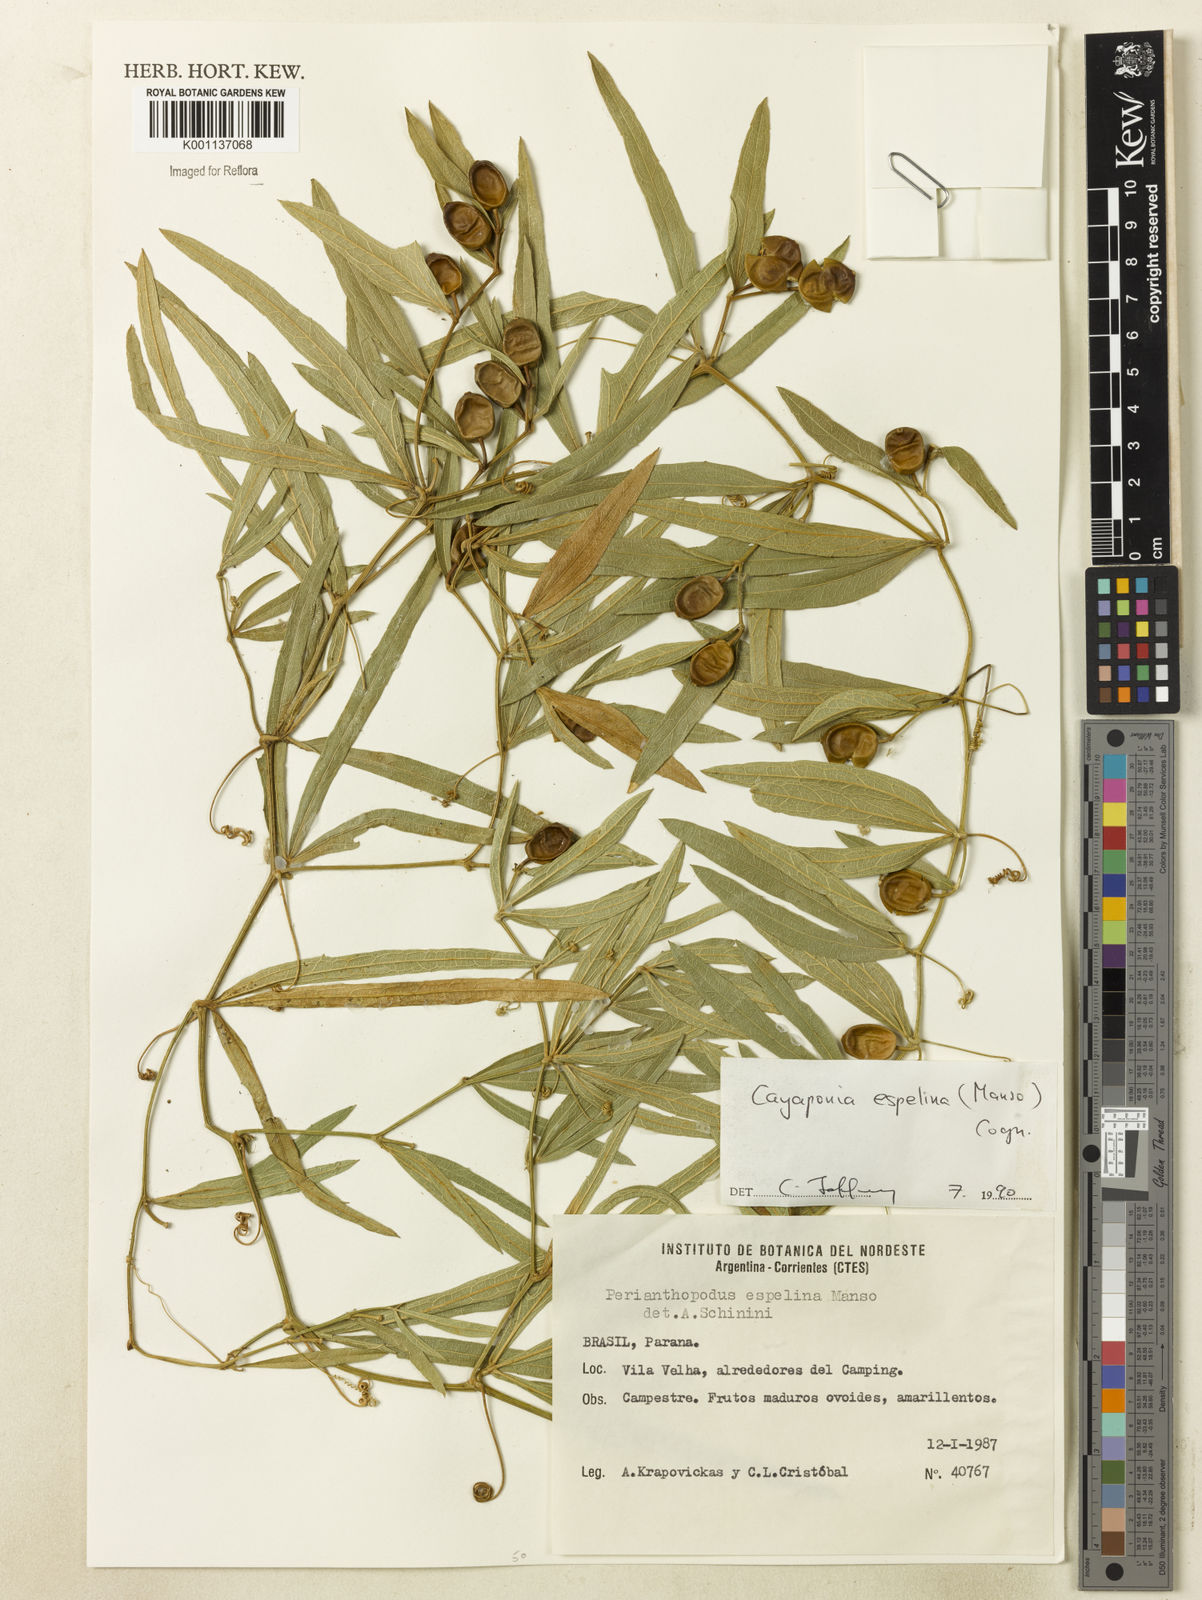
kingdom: Plantae
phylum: Tracheophyta
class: Magnoliopsida
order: Cucurbitales
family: Cucurbitaceae
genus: Cayaponia
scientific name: Cayaponia espelina
